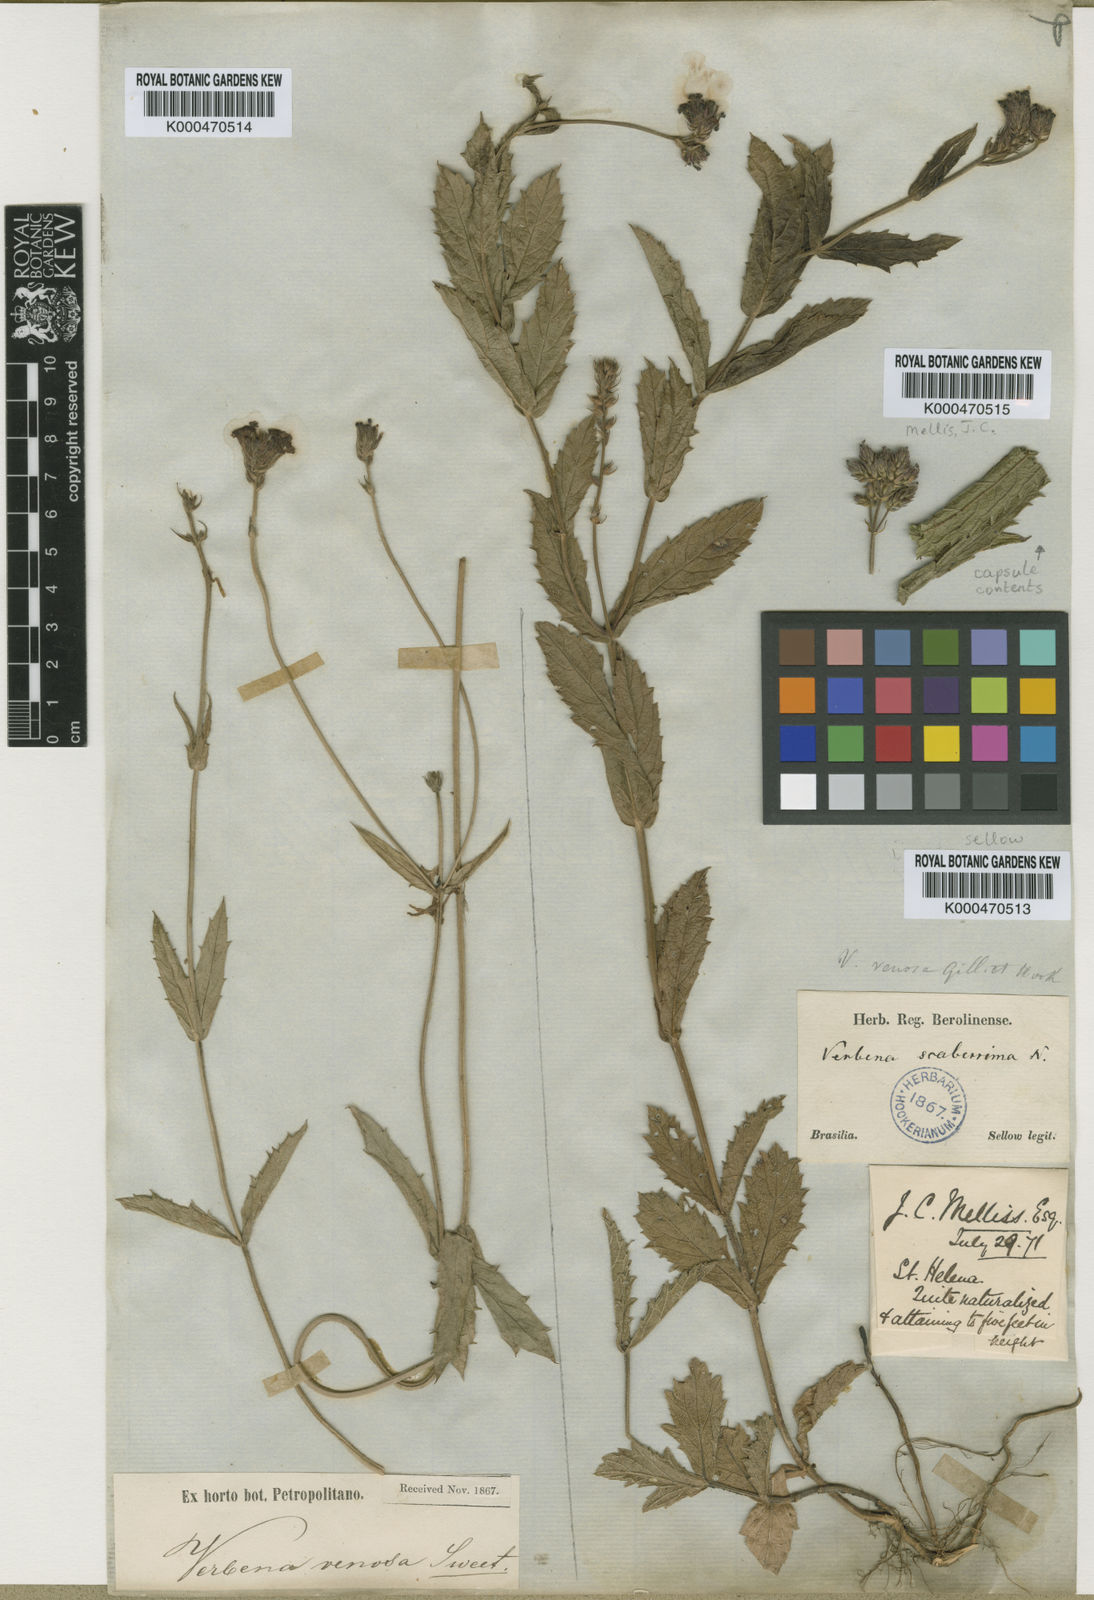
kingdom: Plantae
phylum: Tracheophyta
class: Magnoliopsida
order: Lamiales
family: Verbenaceae
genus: Verbena
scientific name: Verbena rigida
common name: Slender vervain
